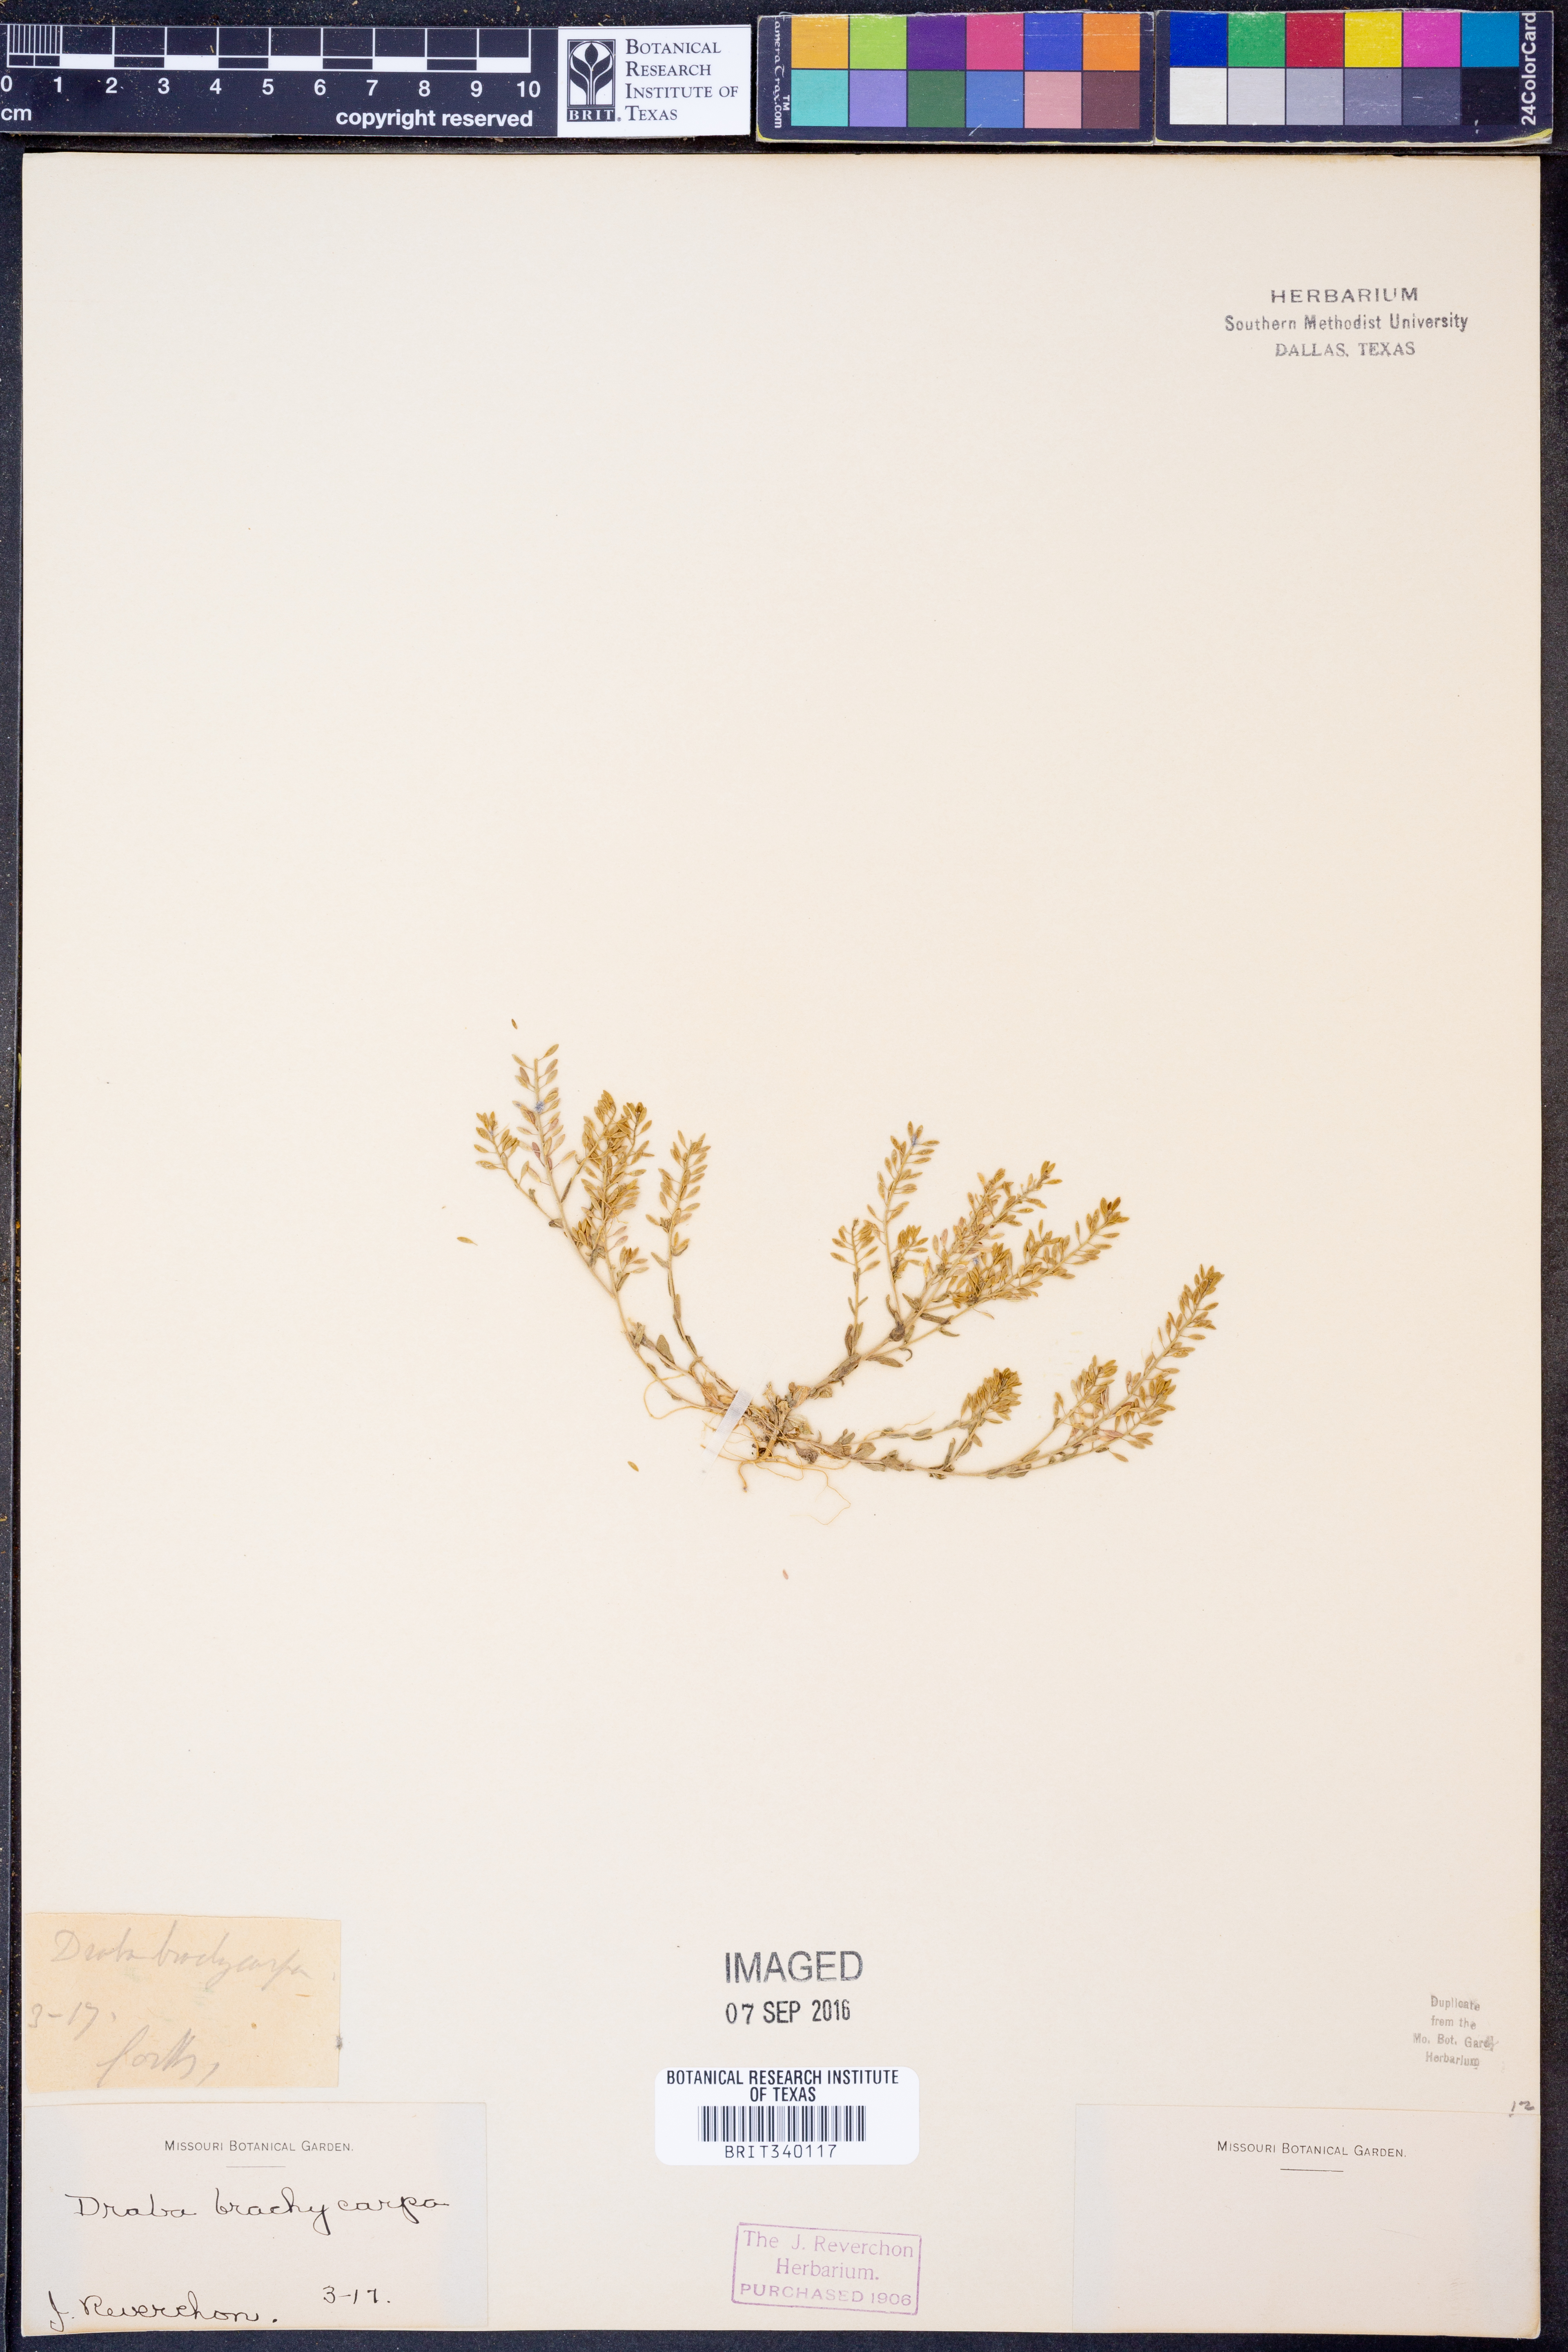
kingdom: Plantae
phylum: Tracheophyta
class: Magnoliopsida
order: Brassicales
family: Brassicaceae
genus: Abdra
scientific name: Abdra brachycarpa
